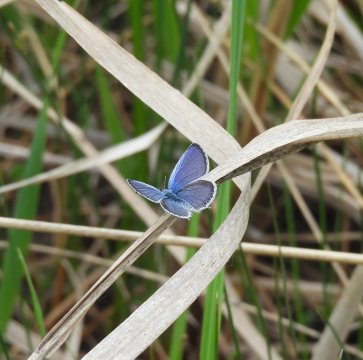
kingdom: Animalia
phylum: Arthropoda
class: Insecta
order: Lepidoptera
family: Lycaenidae
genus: Elkalyce
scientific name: Elkalyce amyntula
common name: Western Tailed-Blue
